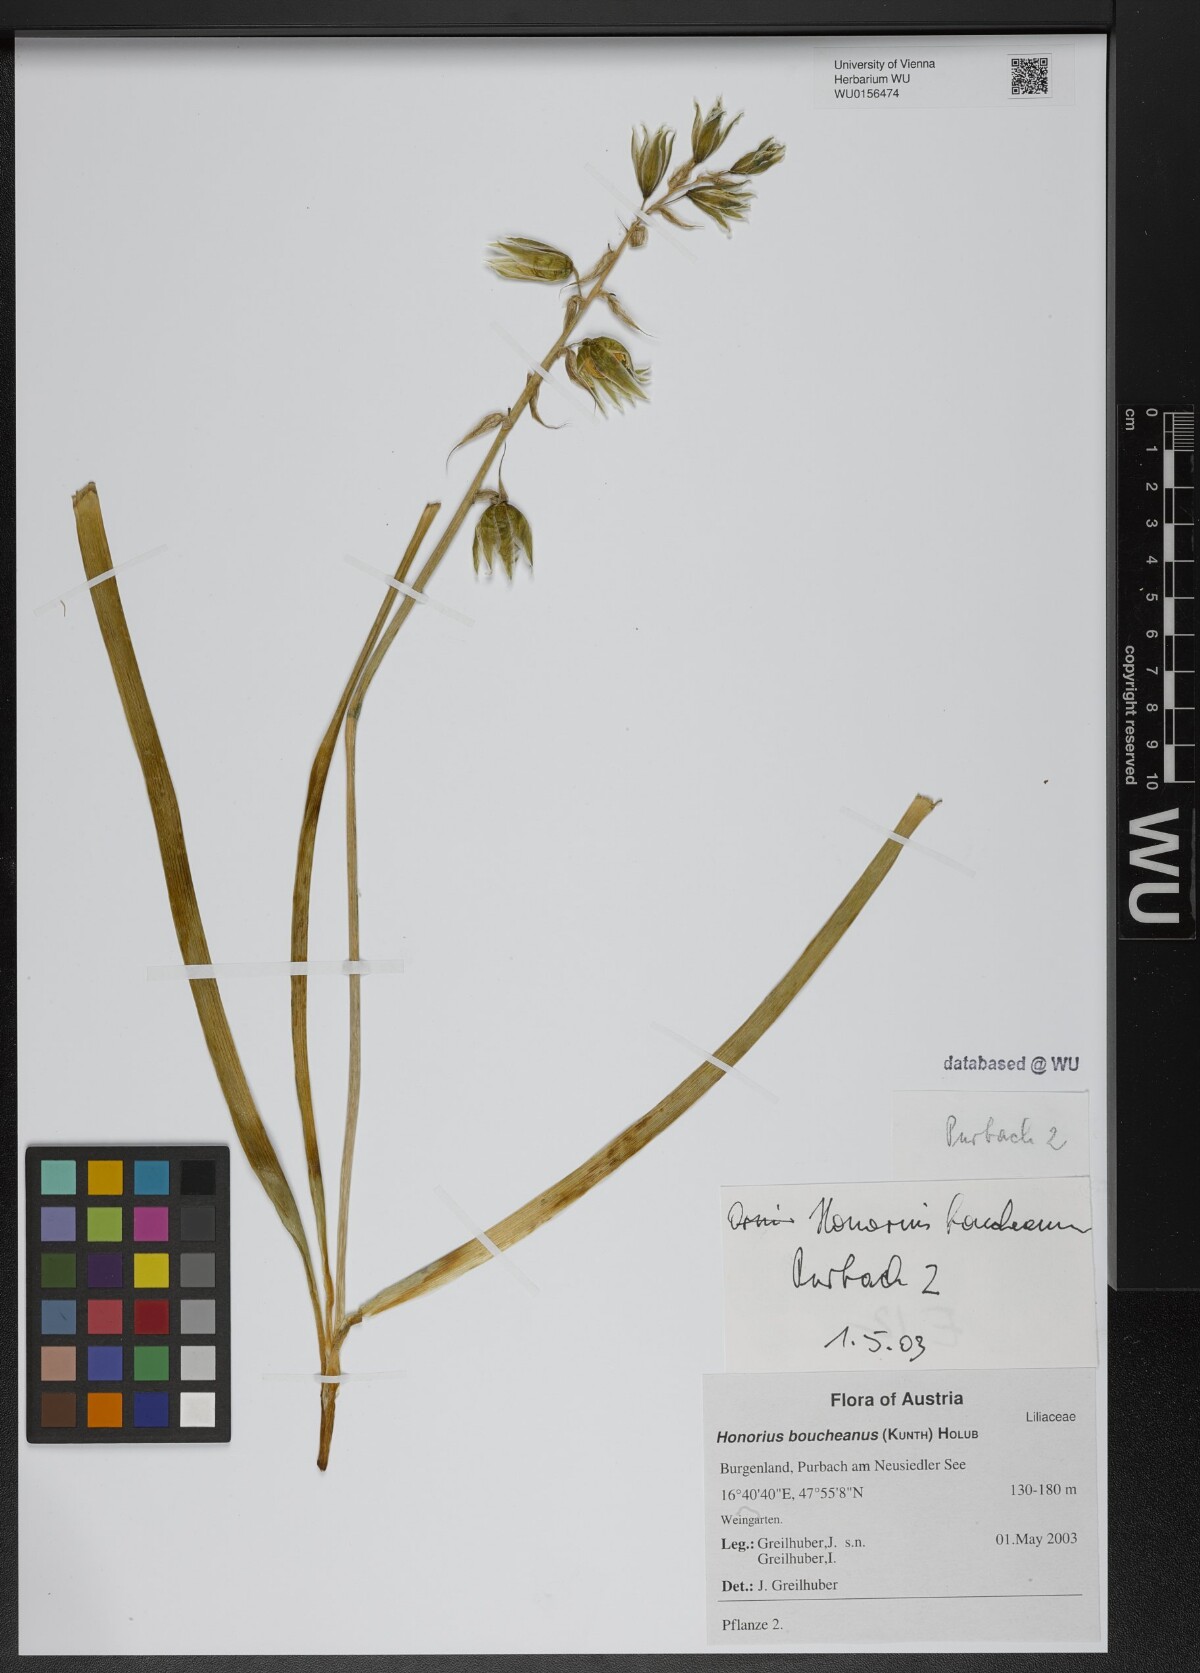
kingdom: Plantae
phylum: Tracheophyta
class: Liliopsida
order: Asparagales
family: Asparagaceae
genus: Ornithogalum
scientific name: Ornithogalum boucheanum
